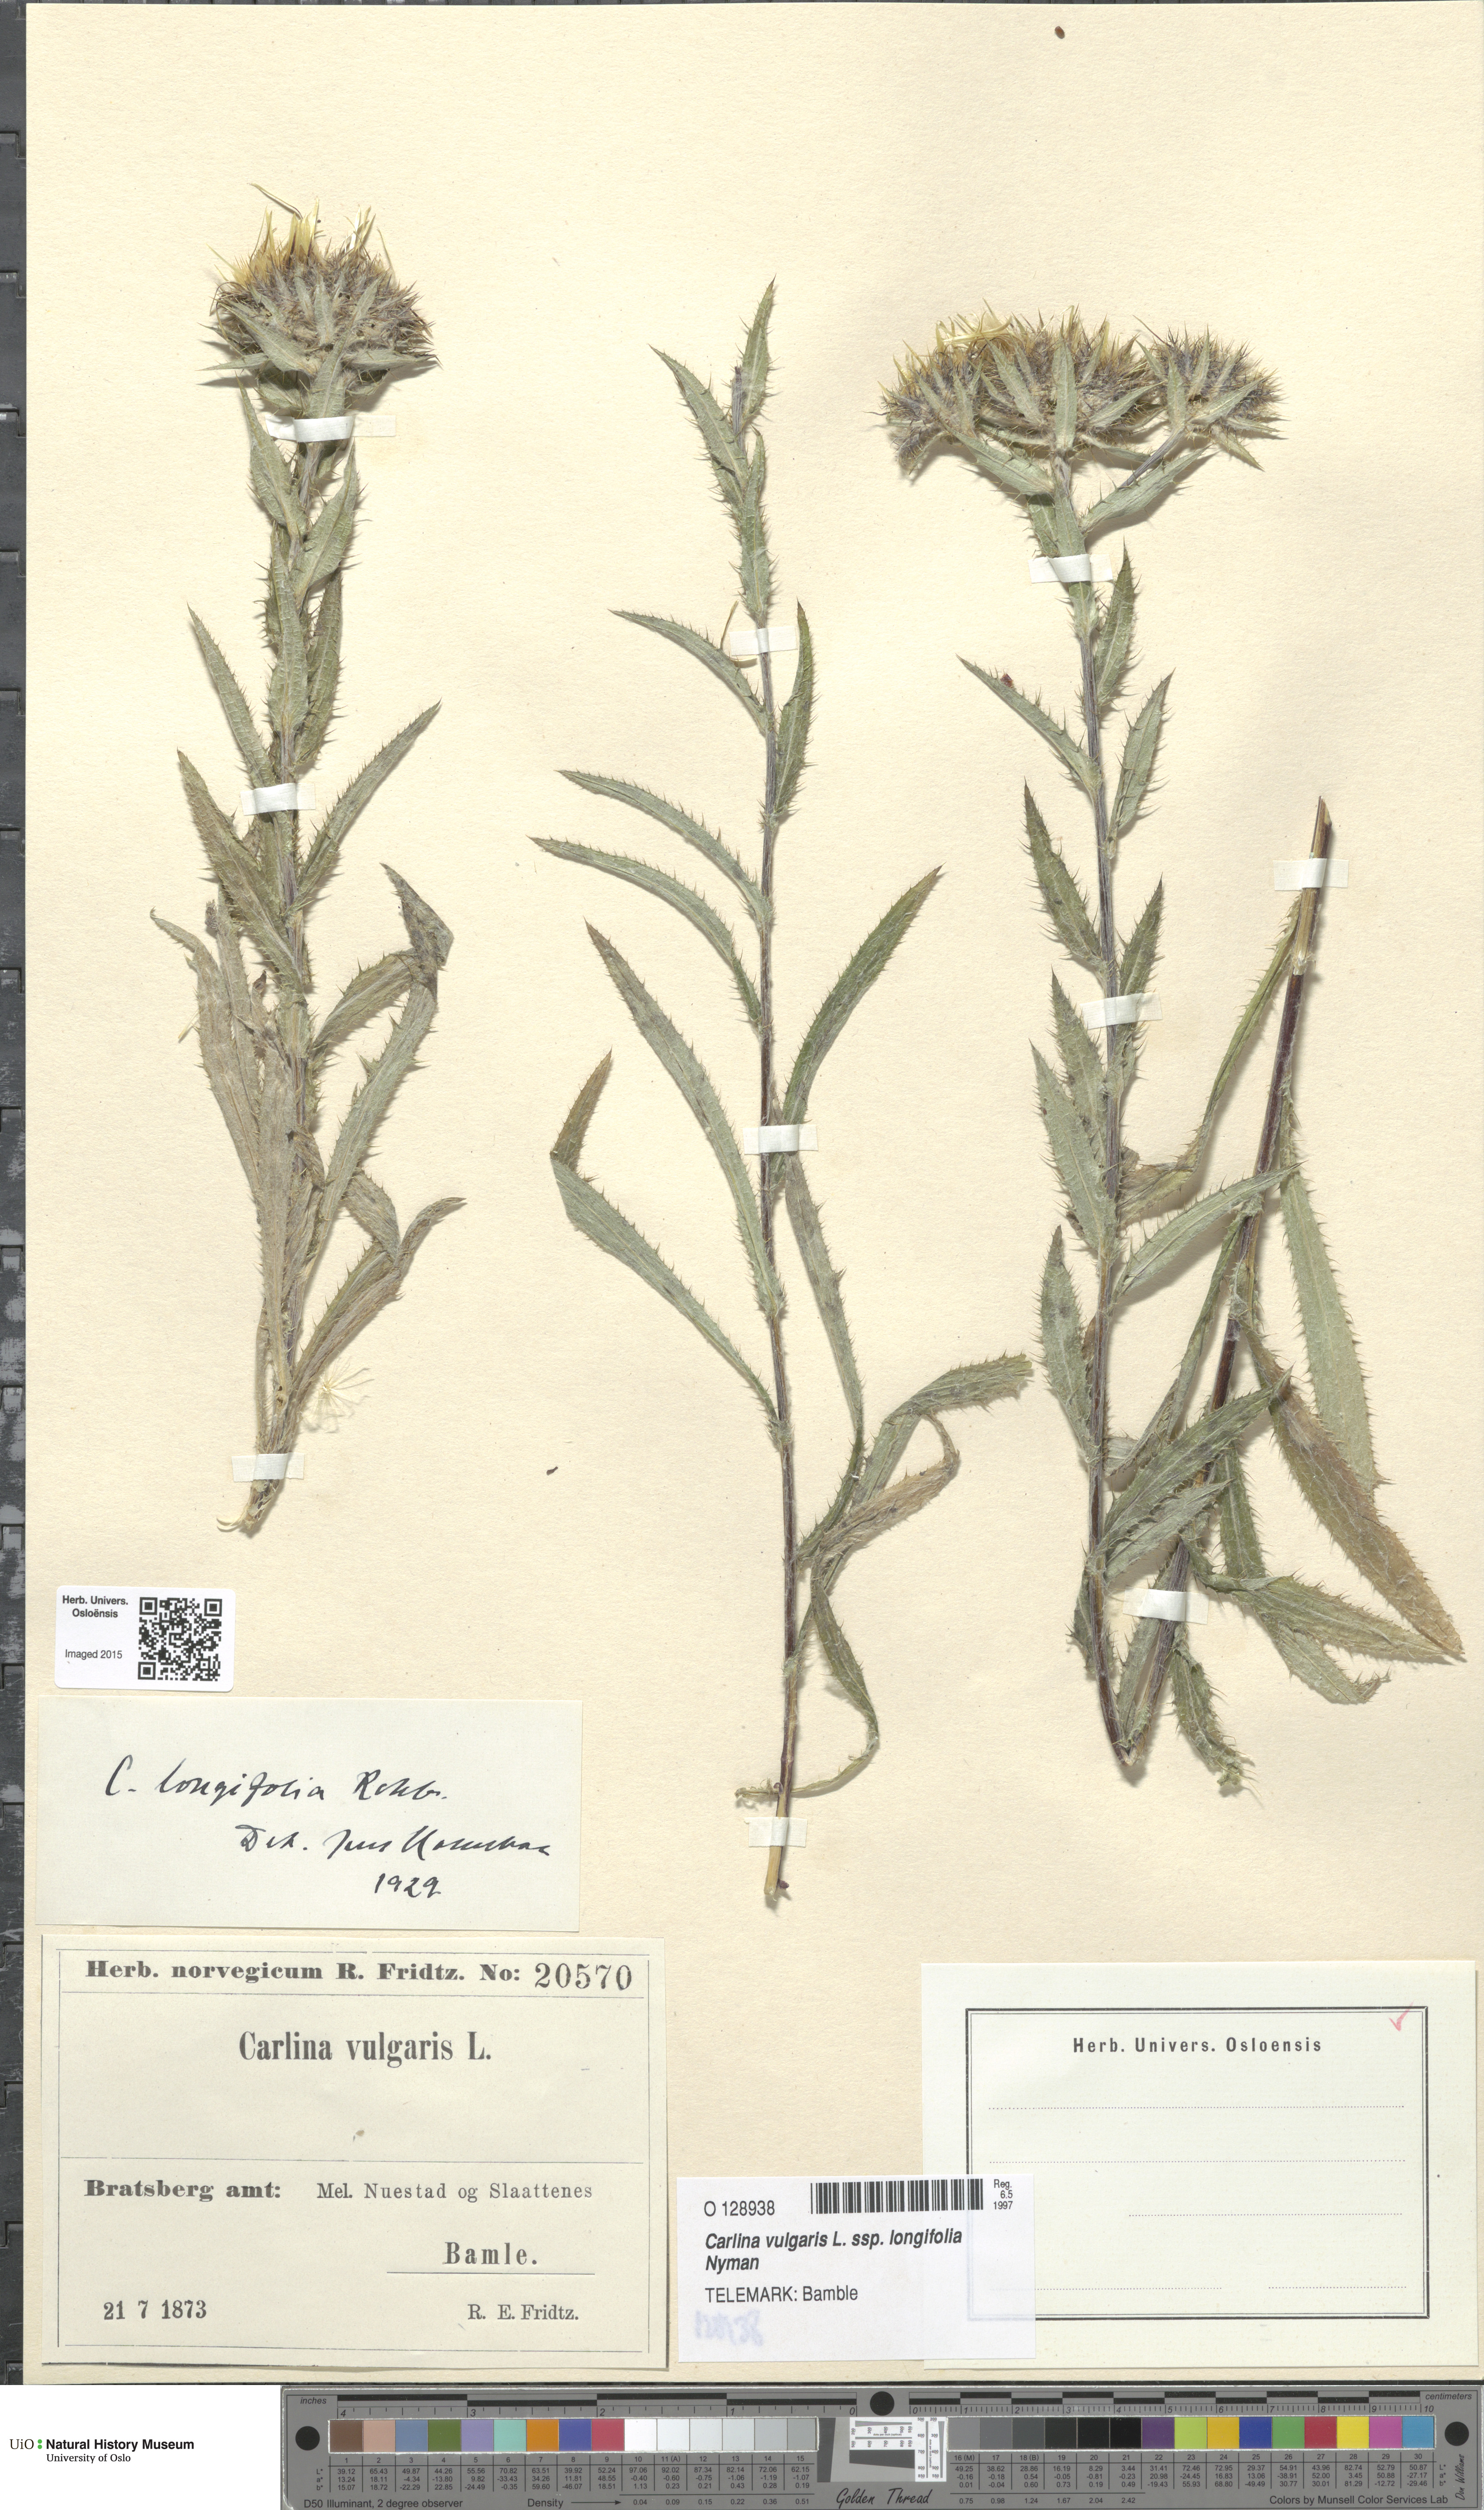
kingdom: Plantae
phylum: Tracheophyta
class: Magnoliopsida
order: Asterales
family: Asteraceae
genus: Carlina
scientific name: Carlina biebersteinii
